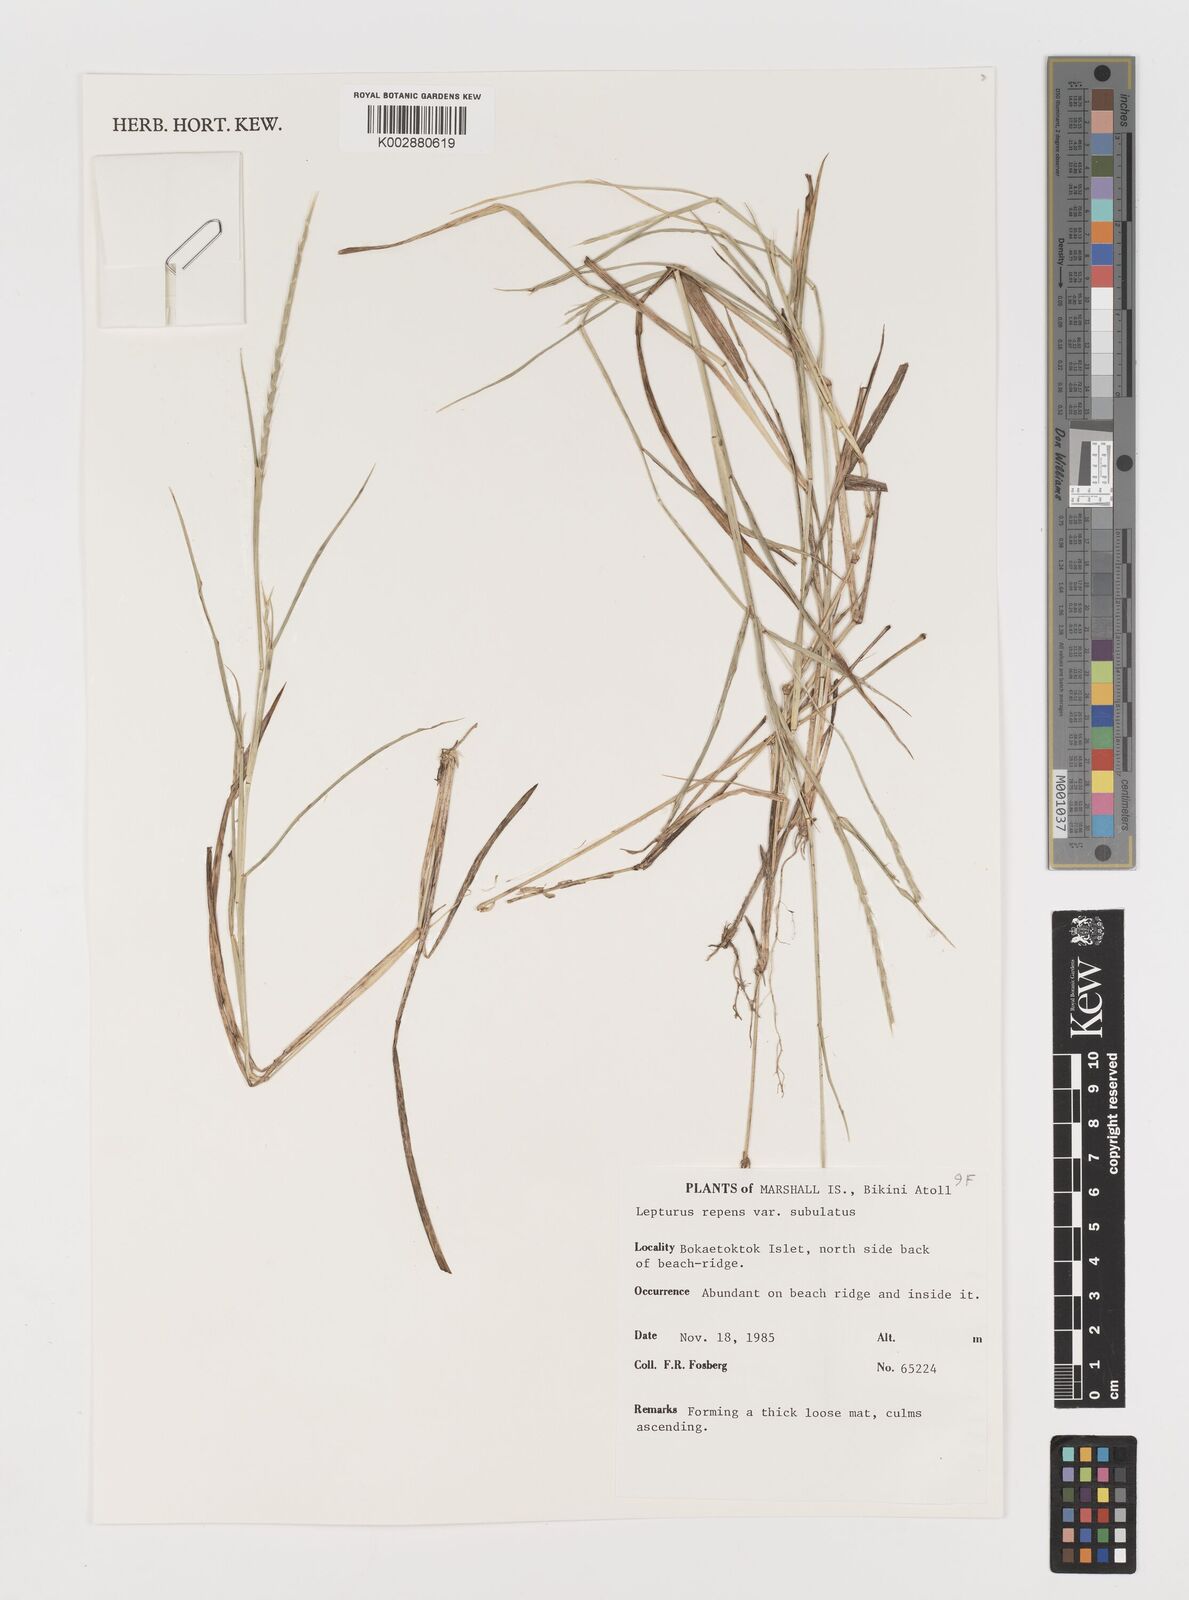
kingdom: Plantae
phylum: Tracheophyta
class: Liliopsida
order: Poales
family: Poaceae
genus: Lepturus
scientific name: Lepturus repens
